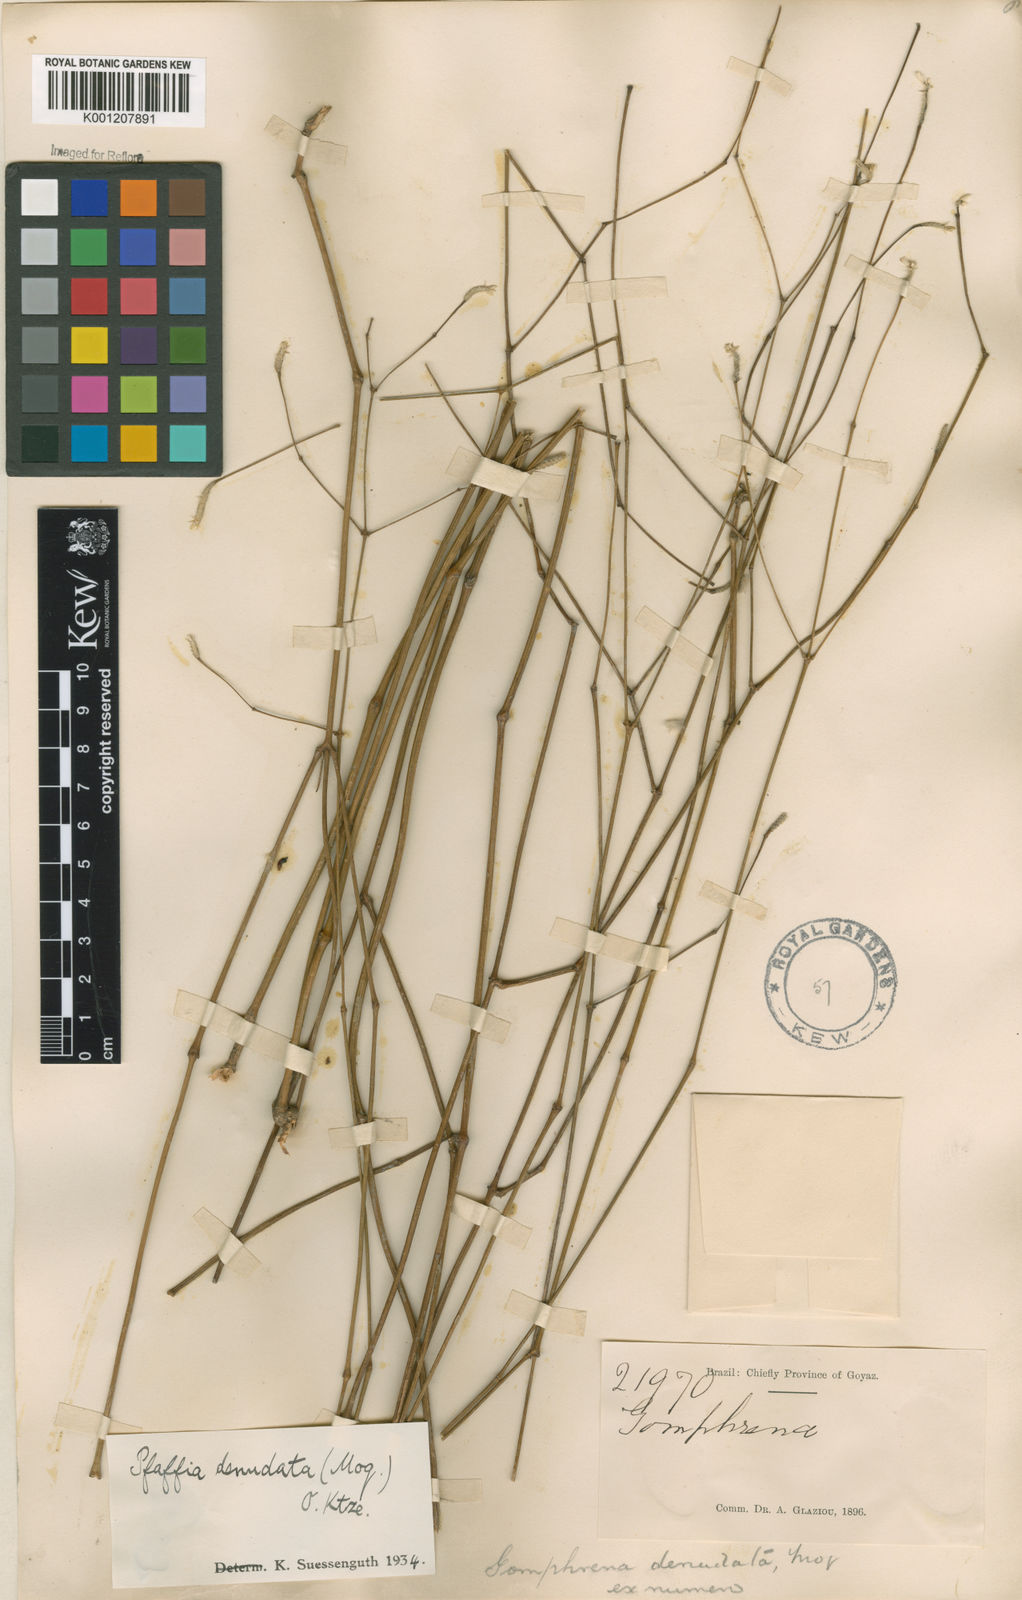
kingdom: Plantae
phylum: Tracheophyta
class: Magnoliopsida
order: Caryophyllales
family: Amaranthaceae
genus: Pfaffia
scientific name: Pfaffia denudata
